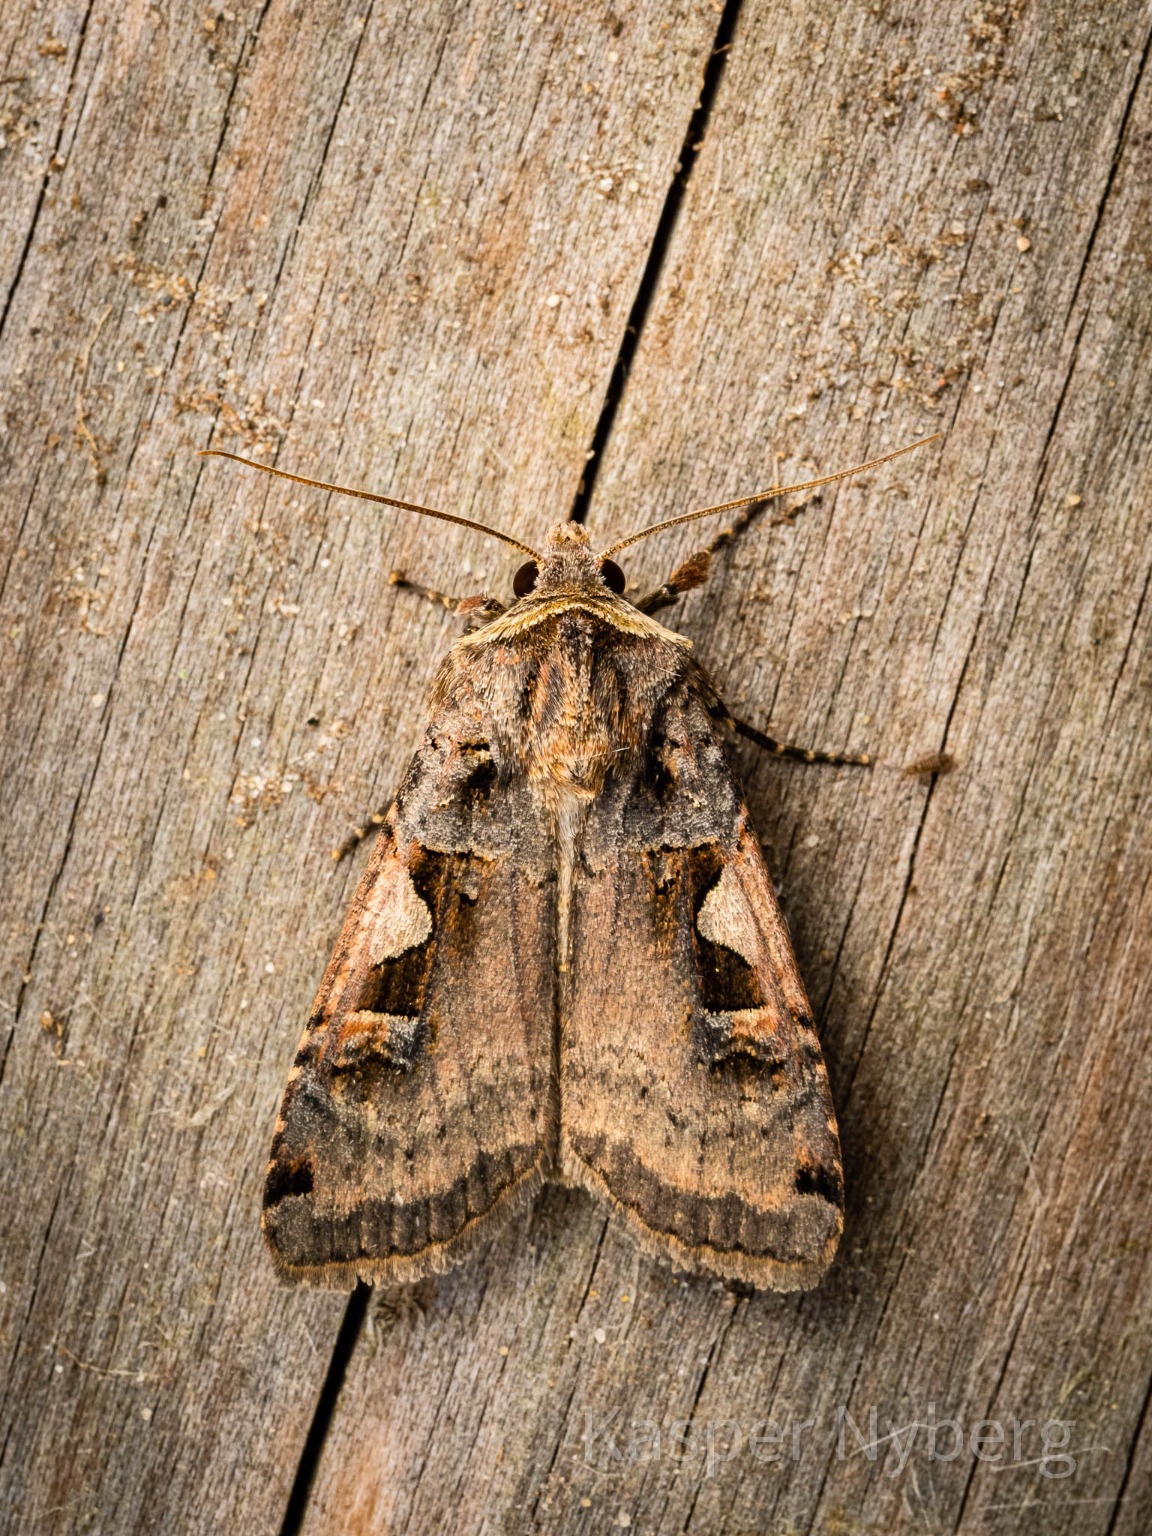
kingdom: Animalia
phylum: Arthropoda
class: Insecta
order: Lepidoptera
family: Noctuidae
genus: Xestia
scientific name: Xestia c-nigrum
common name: Det sorte c
